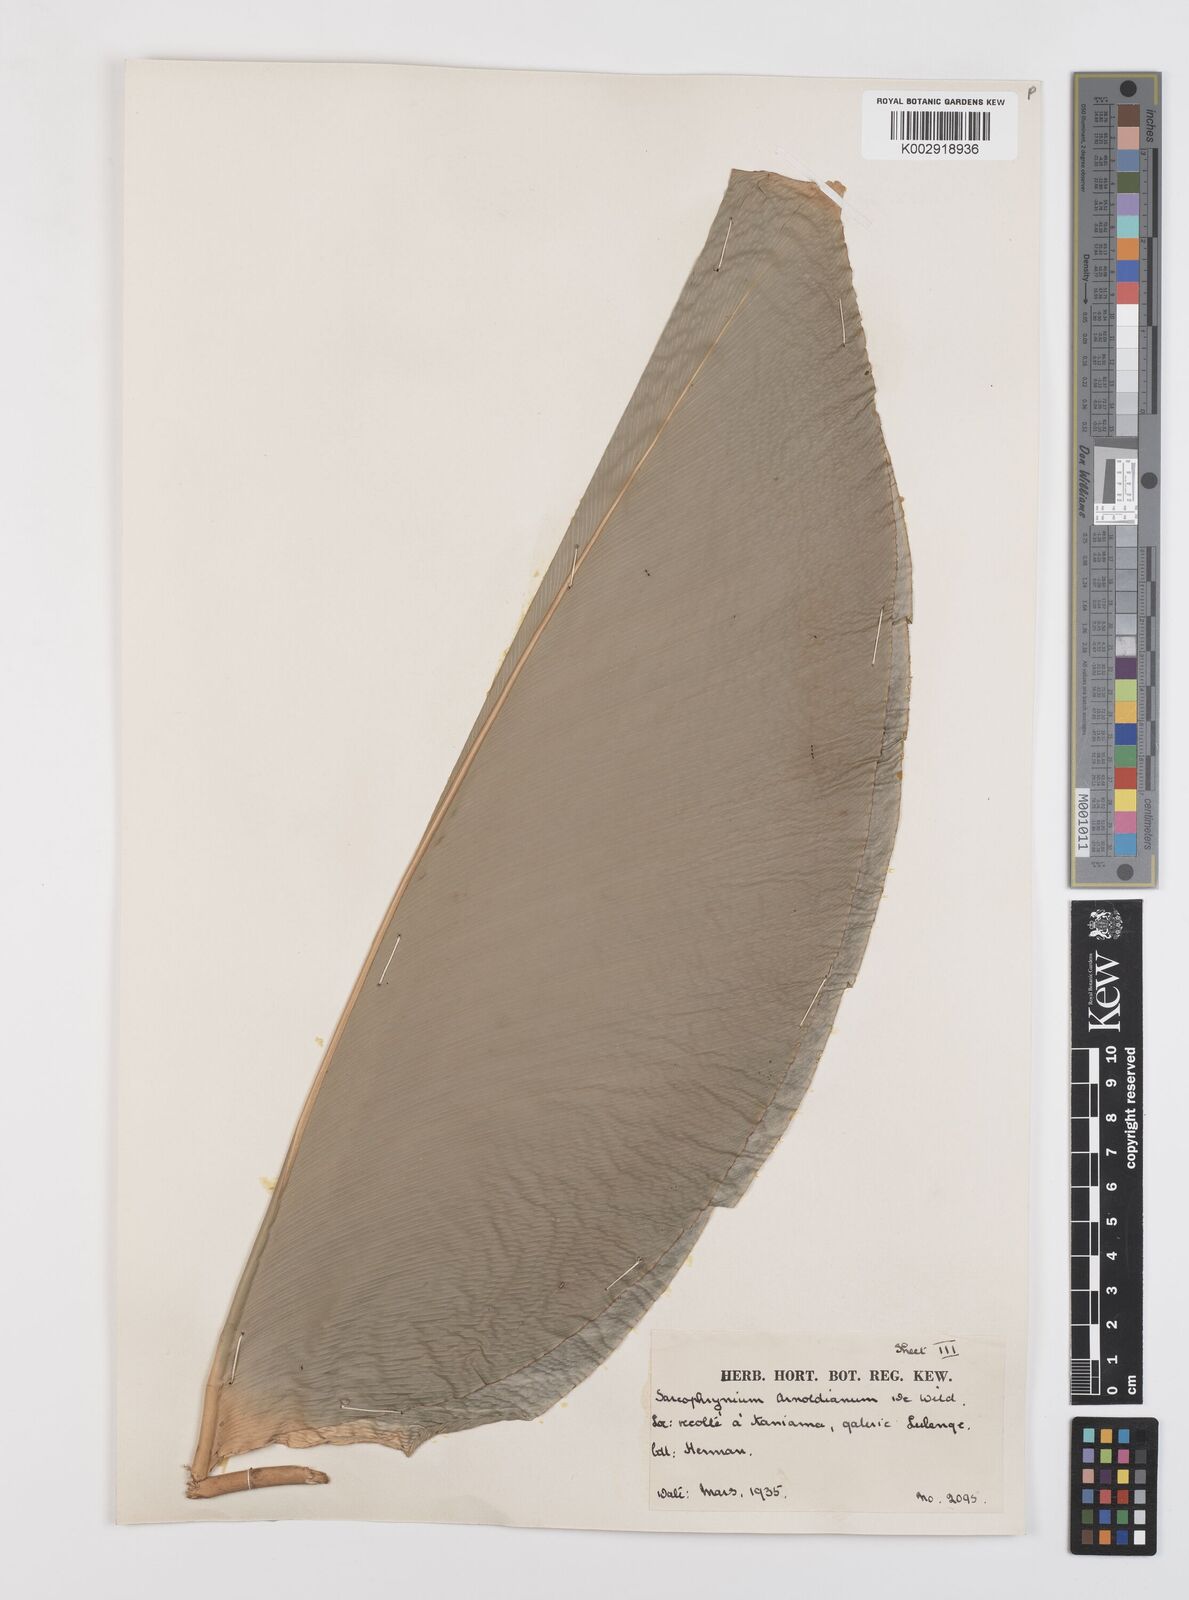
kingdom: Plantae
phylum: Tracheophyta
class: Liliopsida
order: Zingiberales
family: Marantaceae
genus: Megaphrynium
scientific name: Megaphrynium macrostachyum
